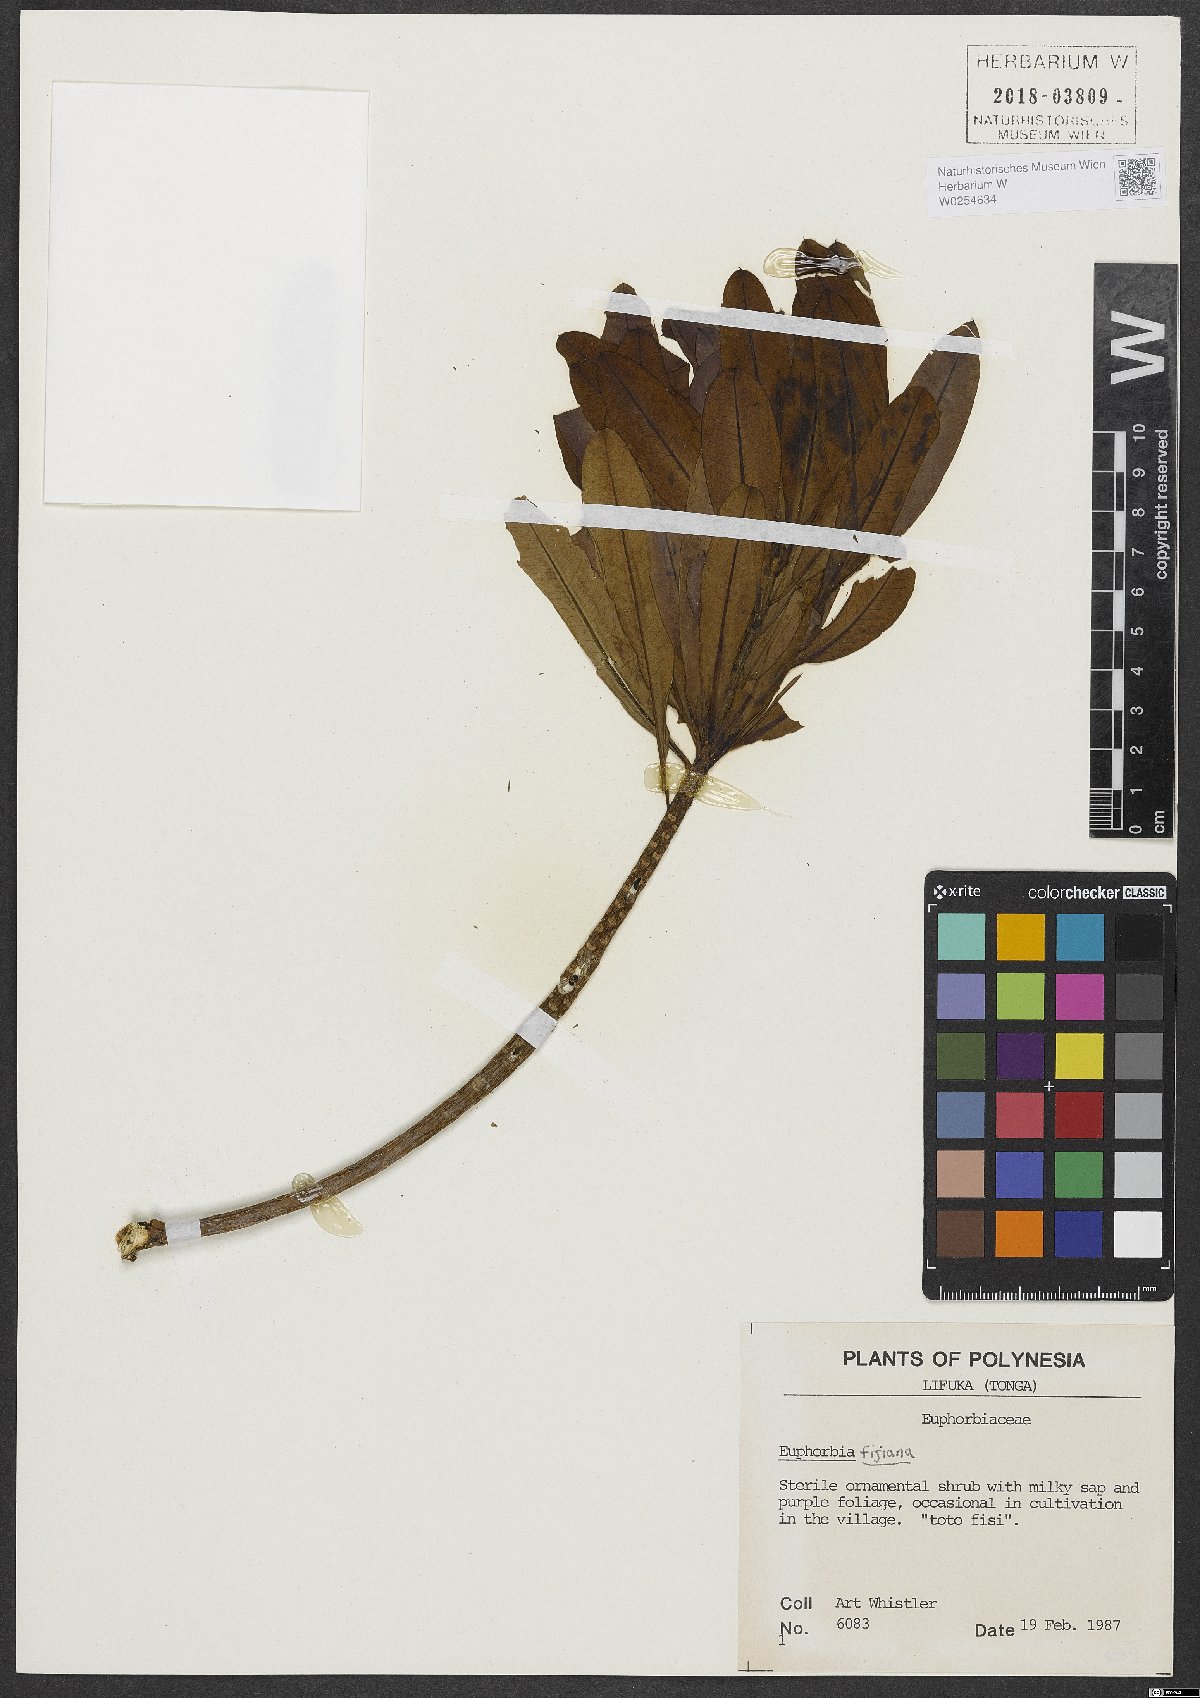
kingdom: Plantae
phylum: Tracheophyta
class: Magnoliopsida
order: Malpighiales
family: Euphorbiaceae
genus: Euphorbia
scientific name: Euphorbia plumerioides
